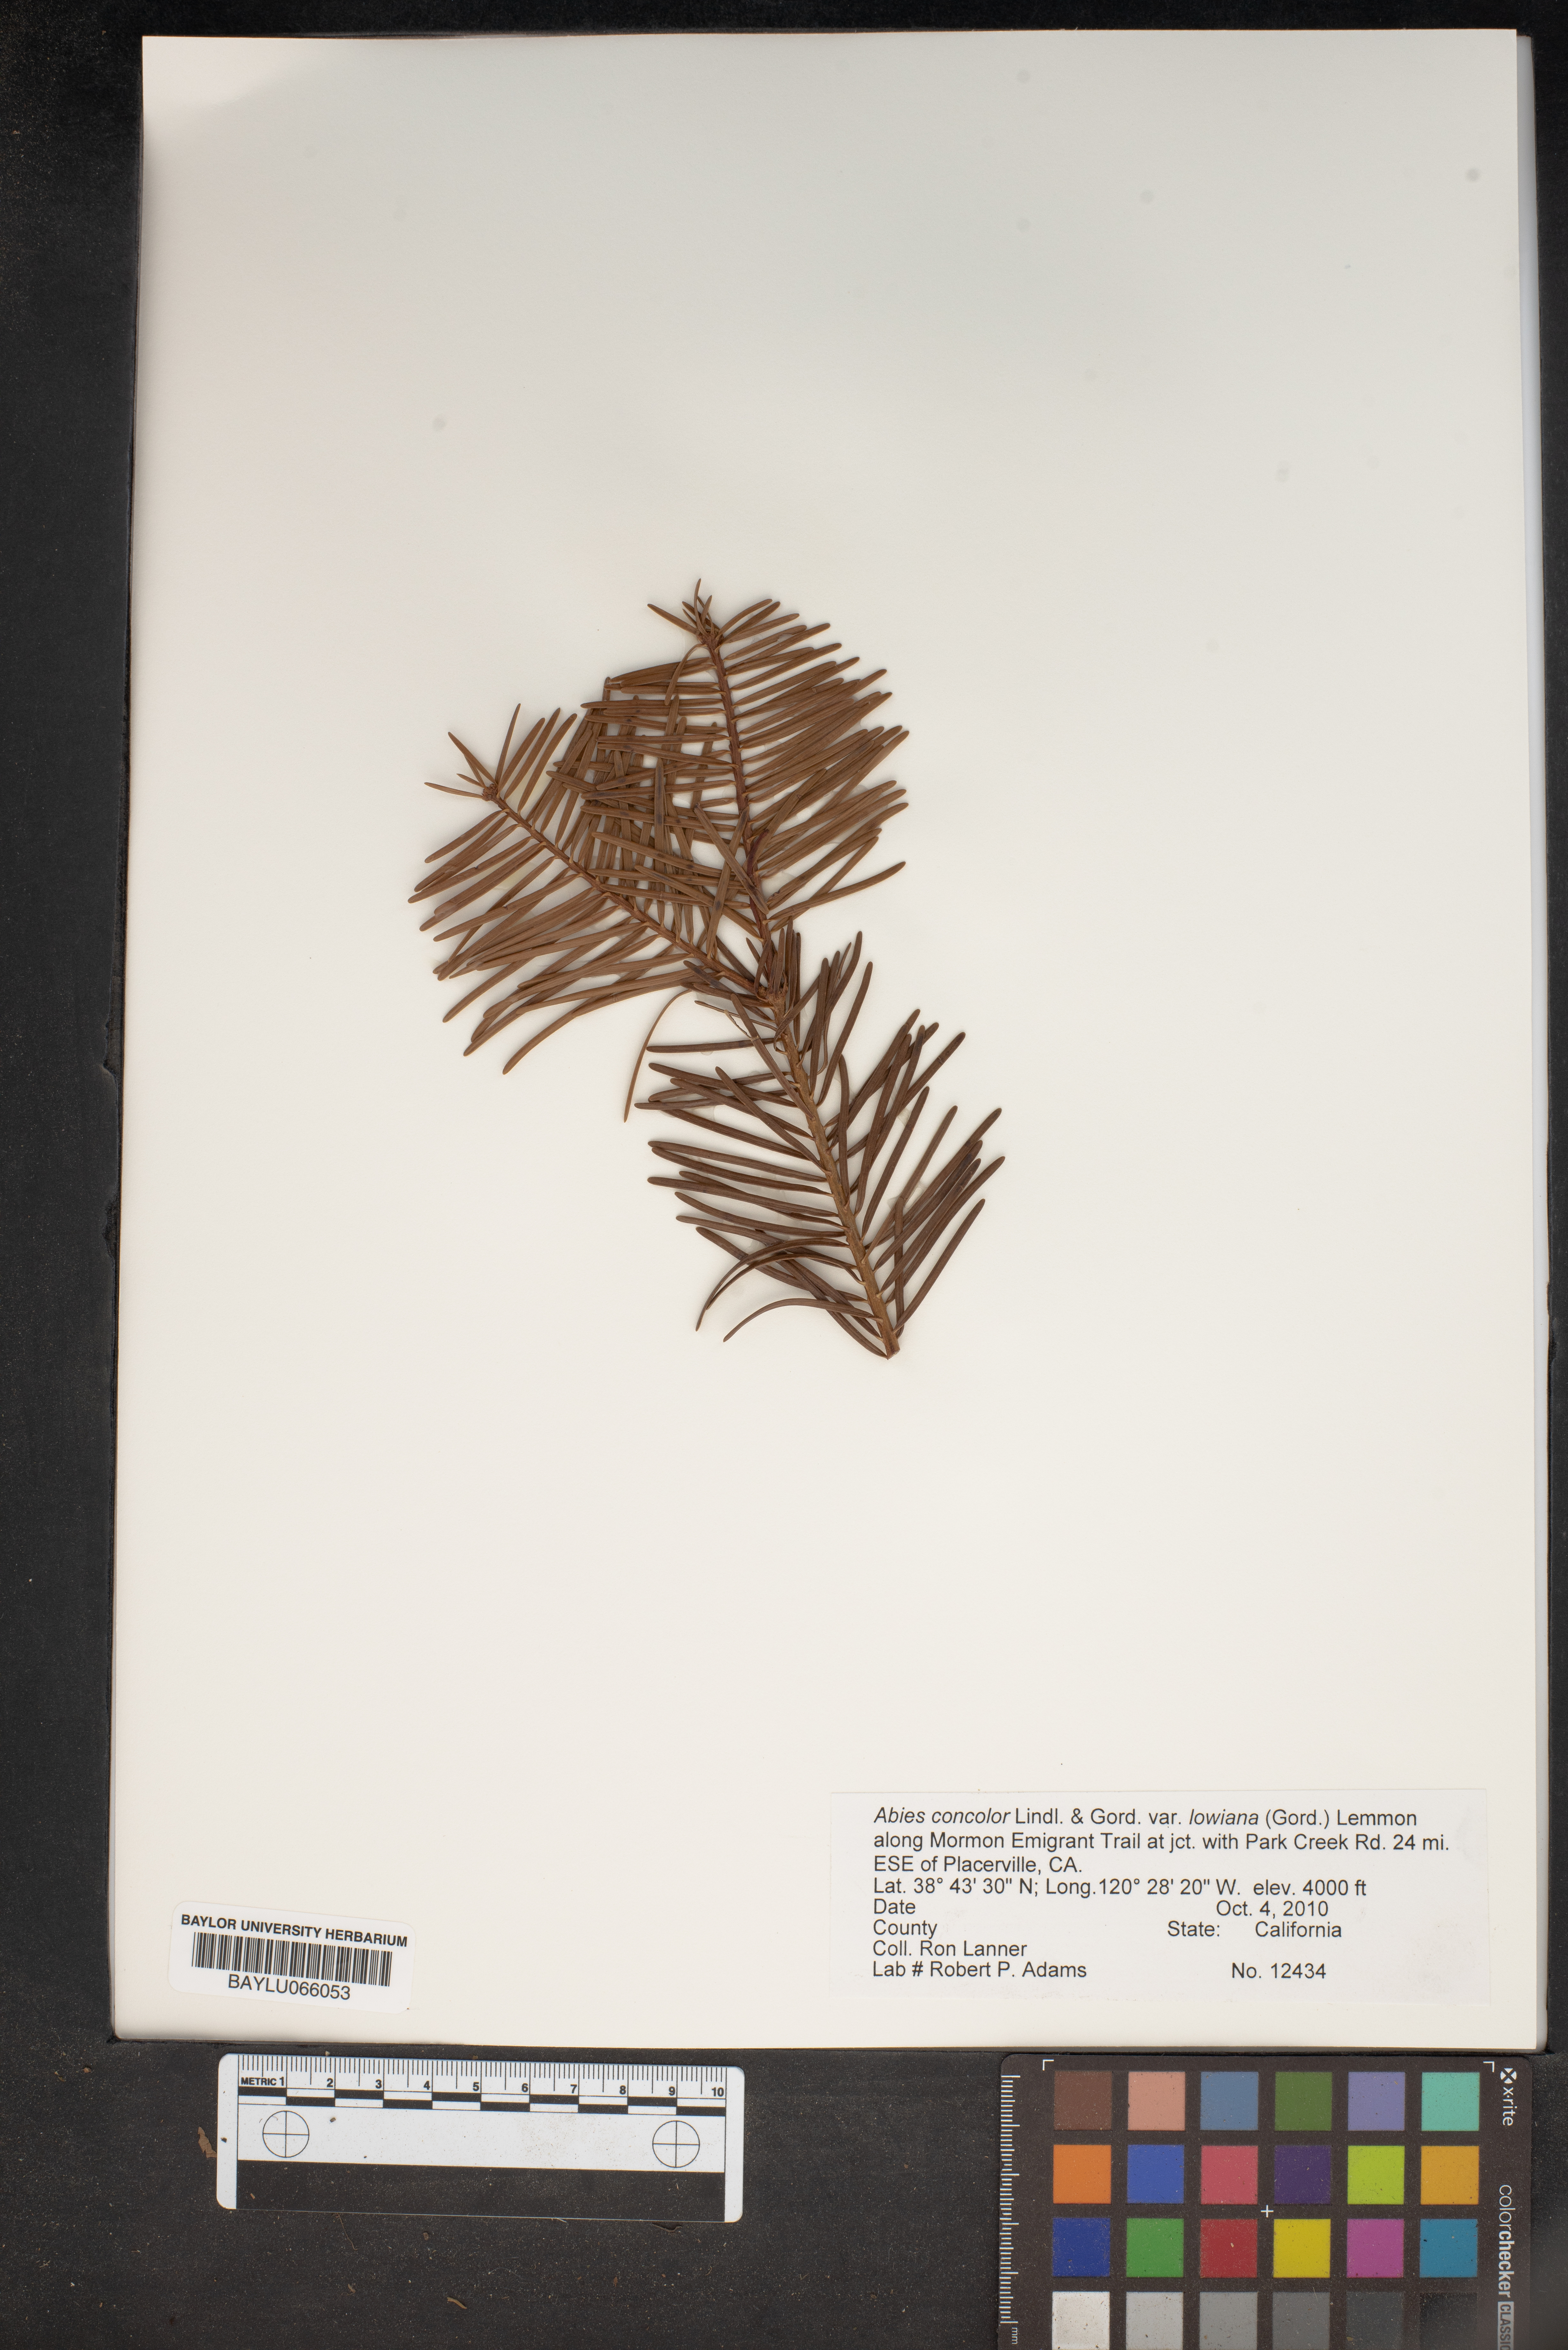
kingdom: Plantae
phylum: Tracheophyta
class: Pinopsida
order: Pinales
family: Pinaceae
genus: Abies
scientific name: Abies concolor
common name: Colorado fir
